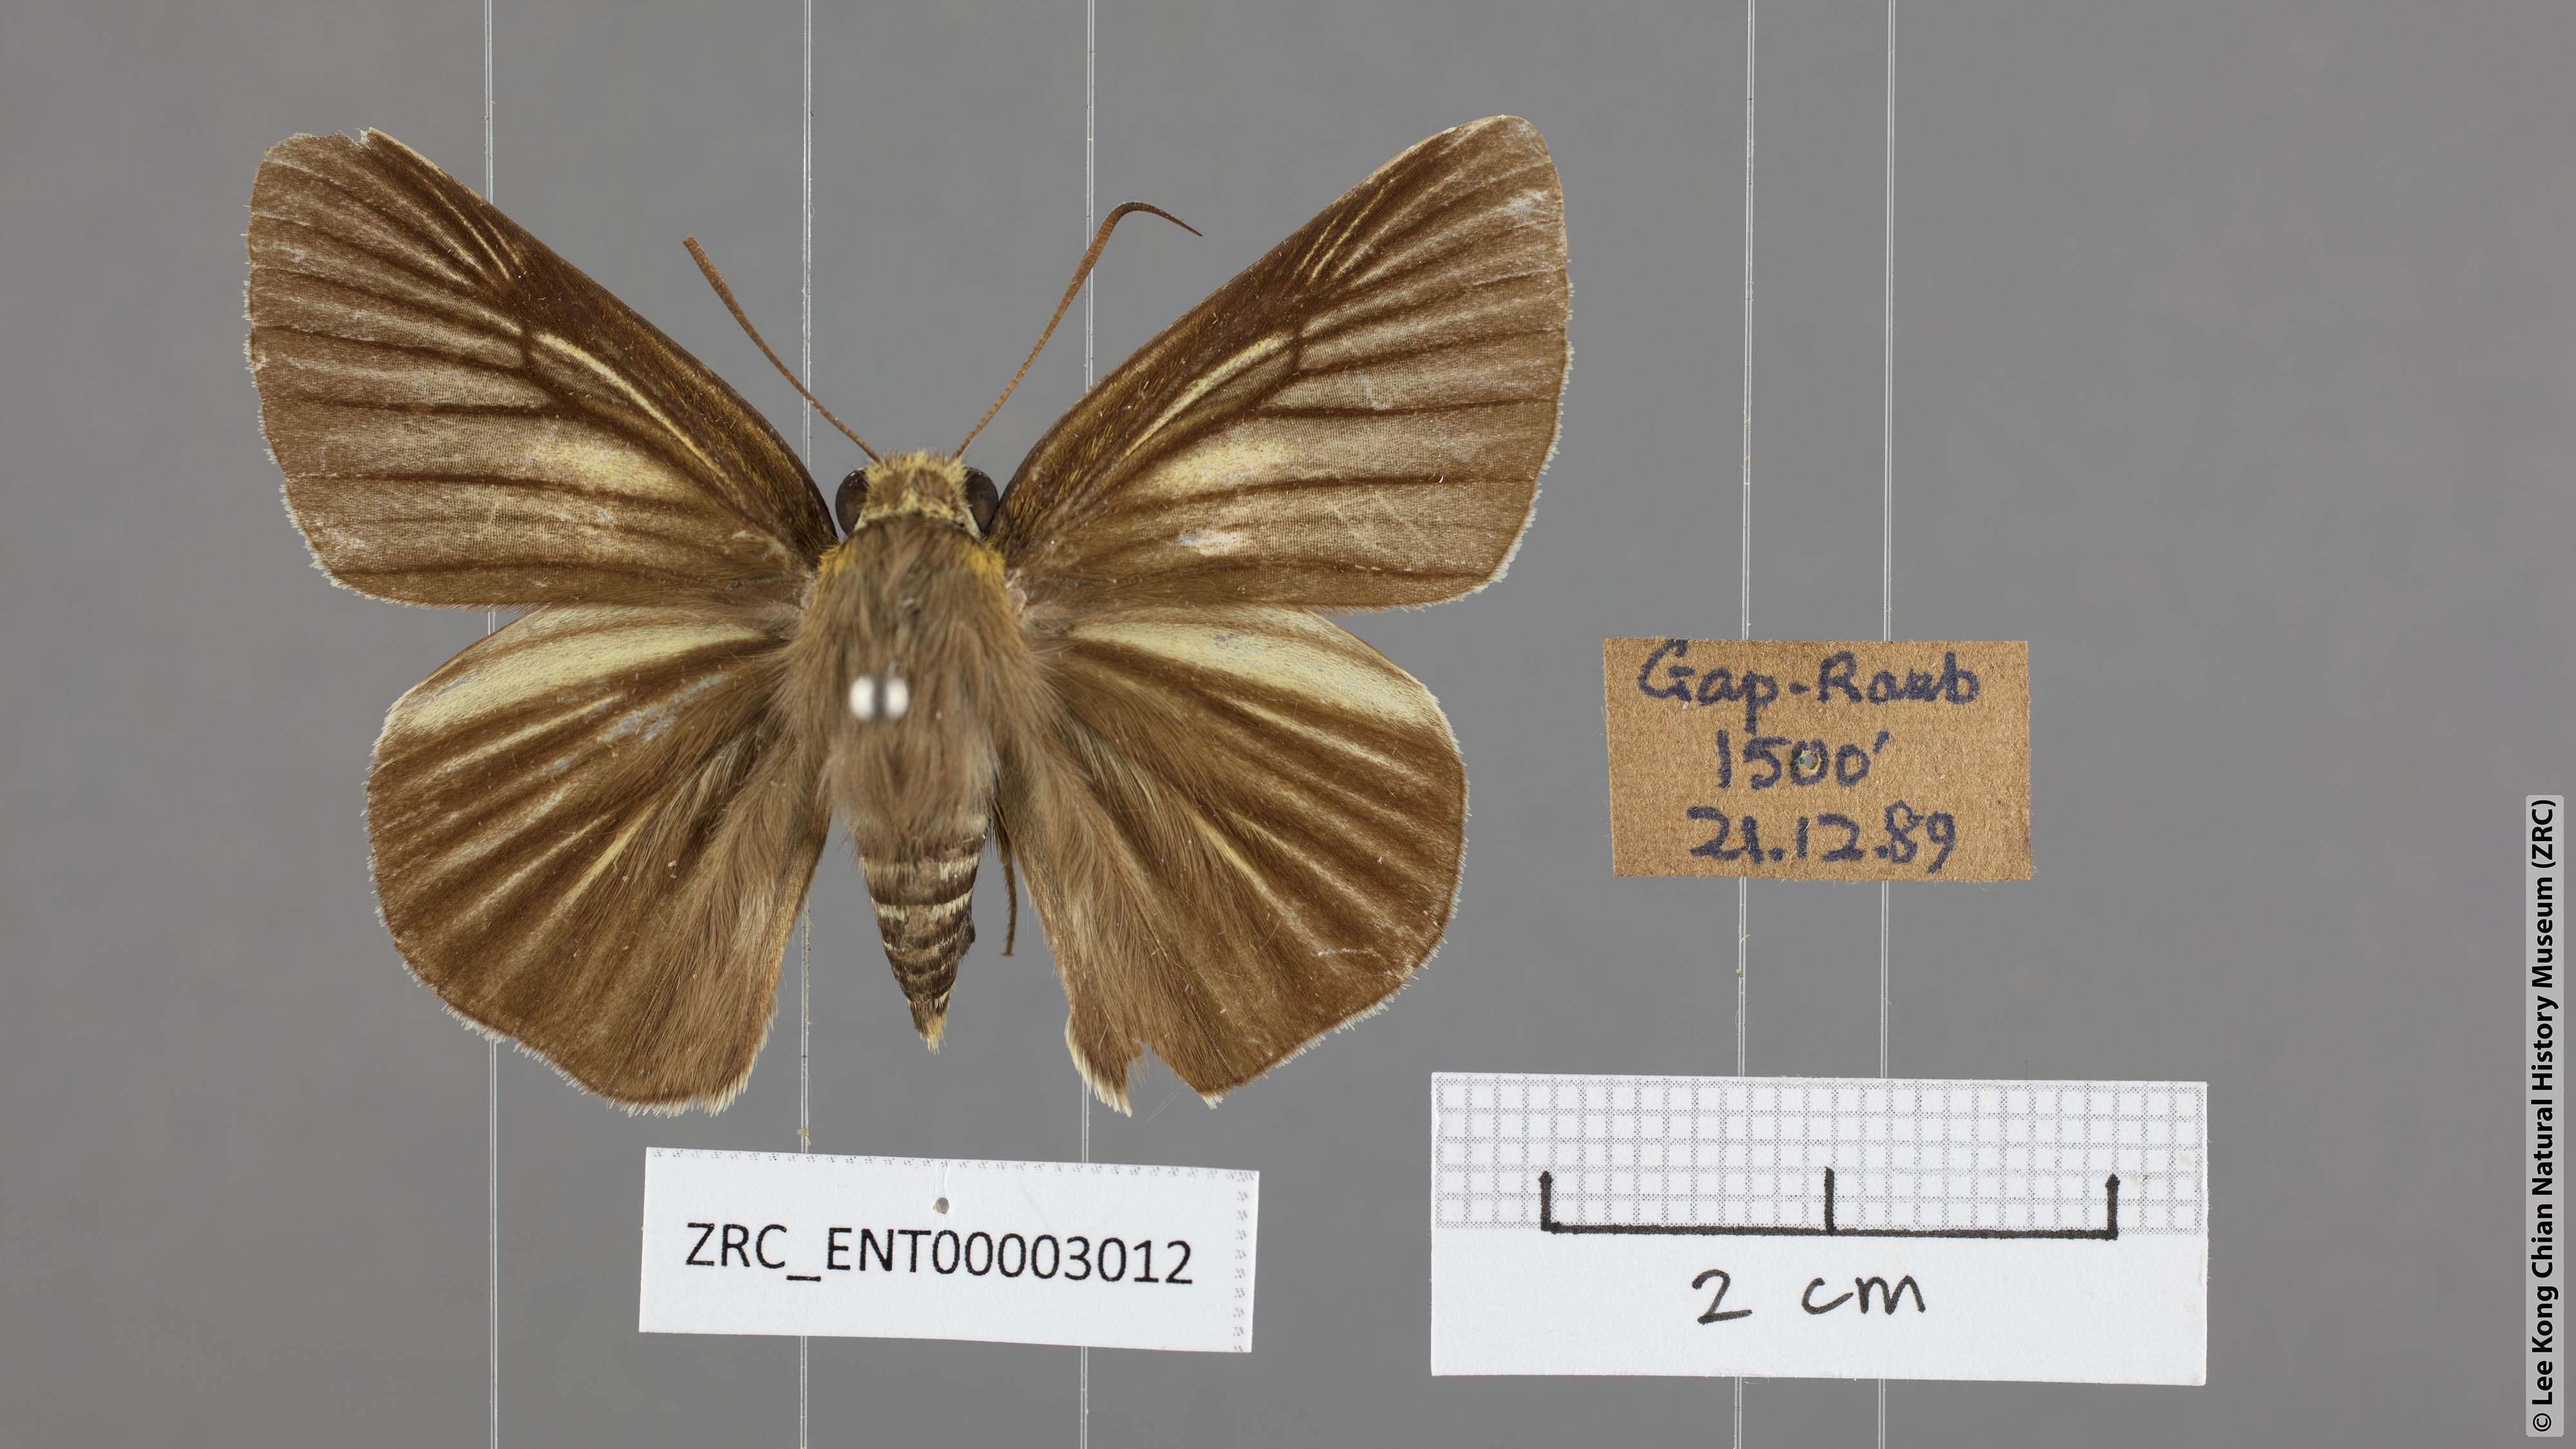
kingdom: Animalia
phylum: Arthropoda
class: Insecta
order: Lepidoptera
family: Hesperiidae
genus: Bibasis
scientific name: Bibasis gomata
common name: Pale green awlet
